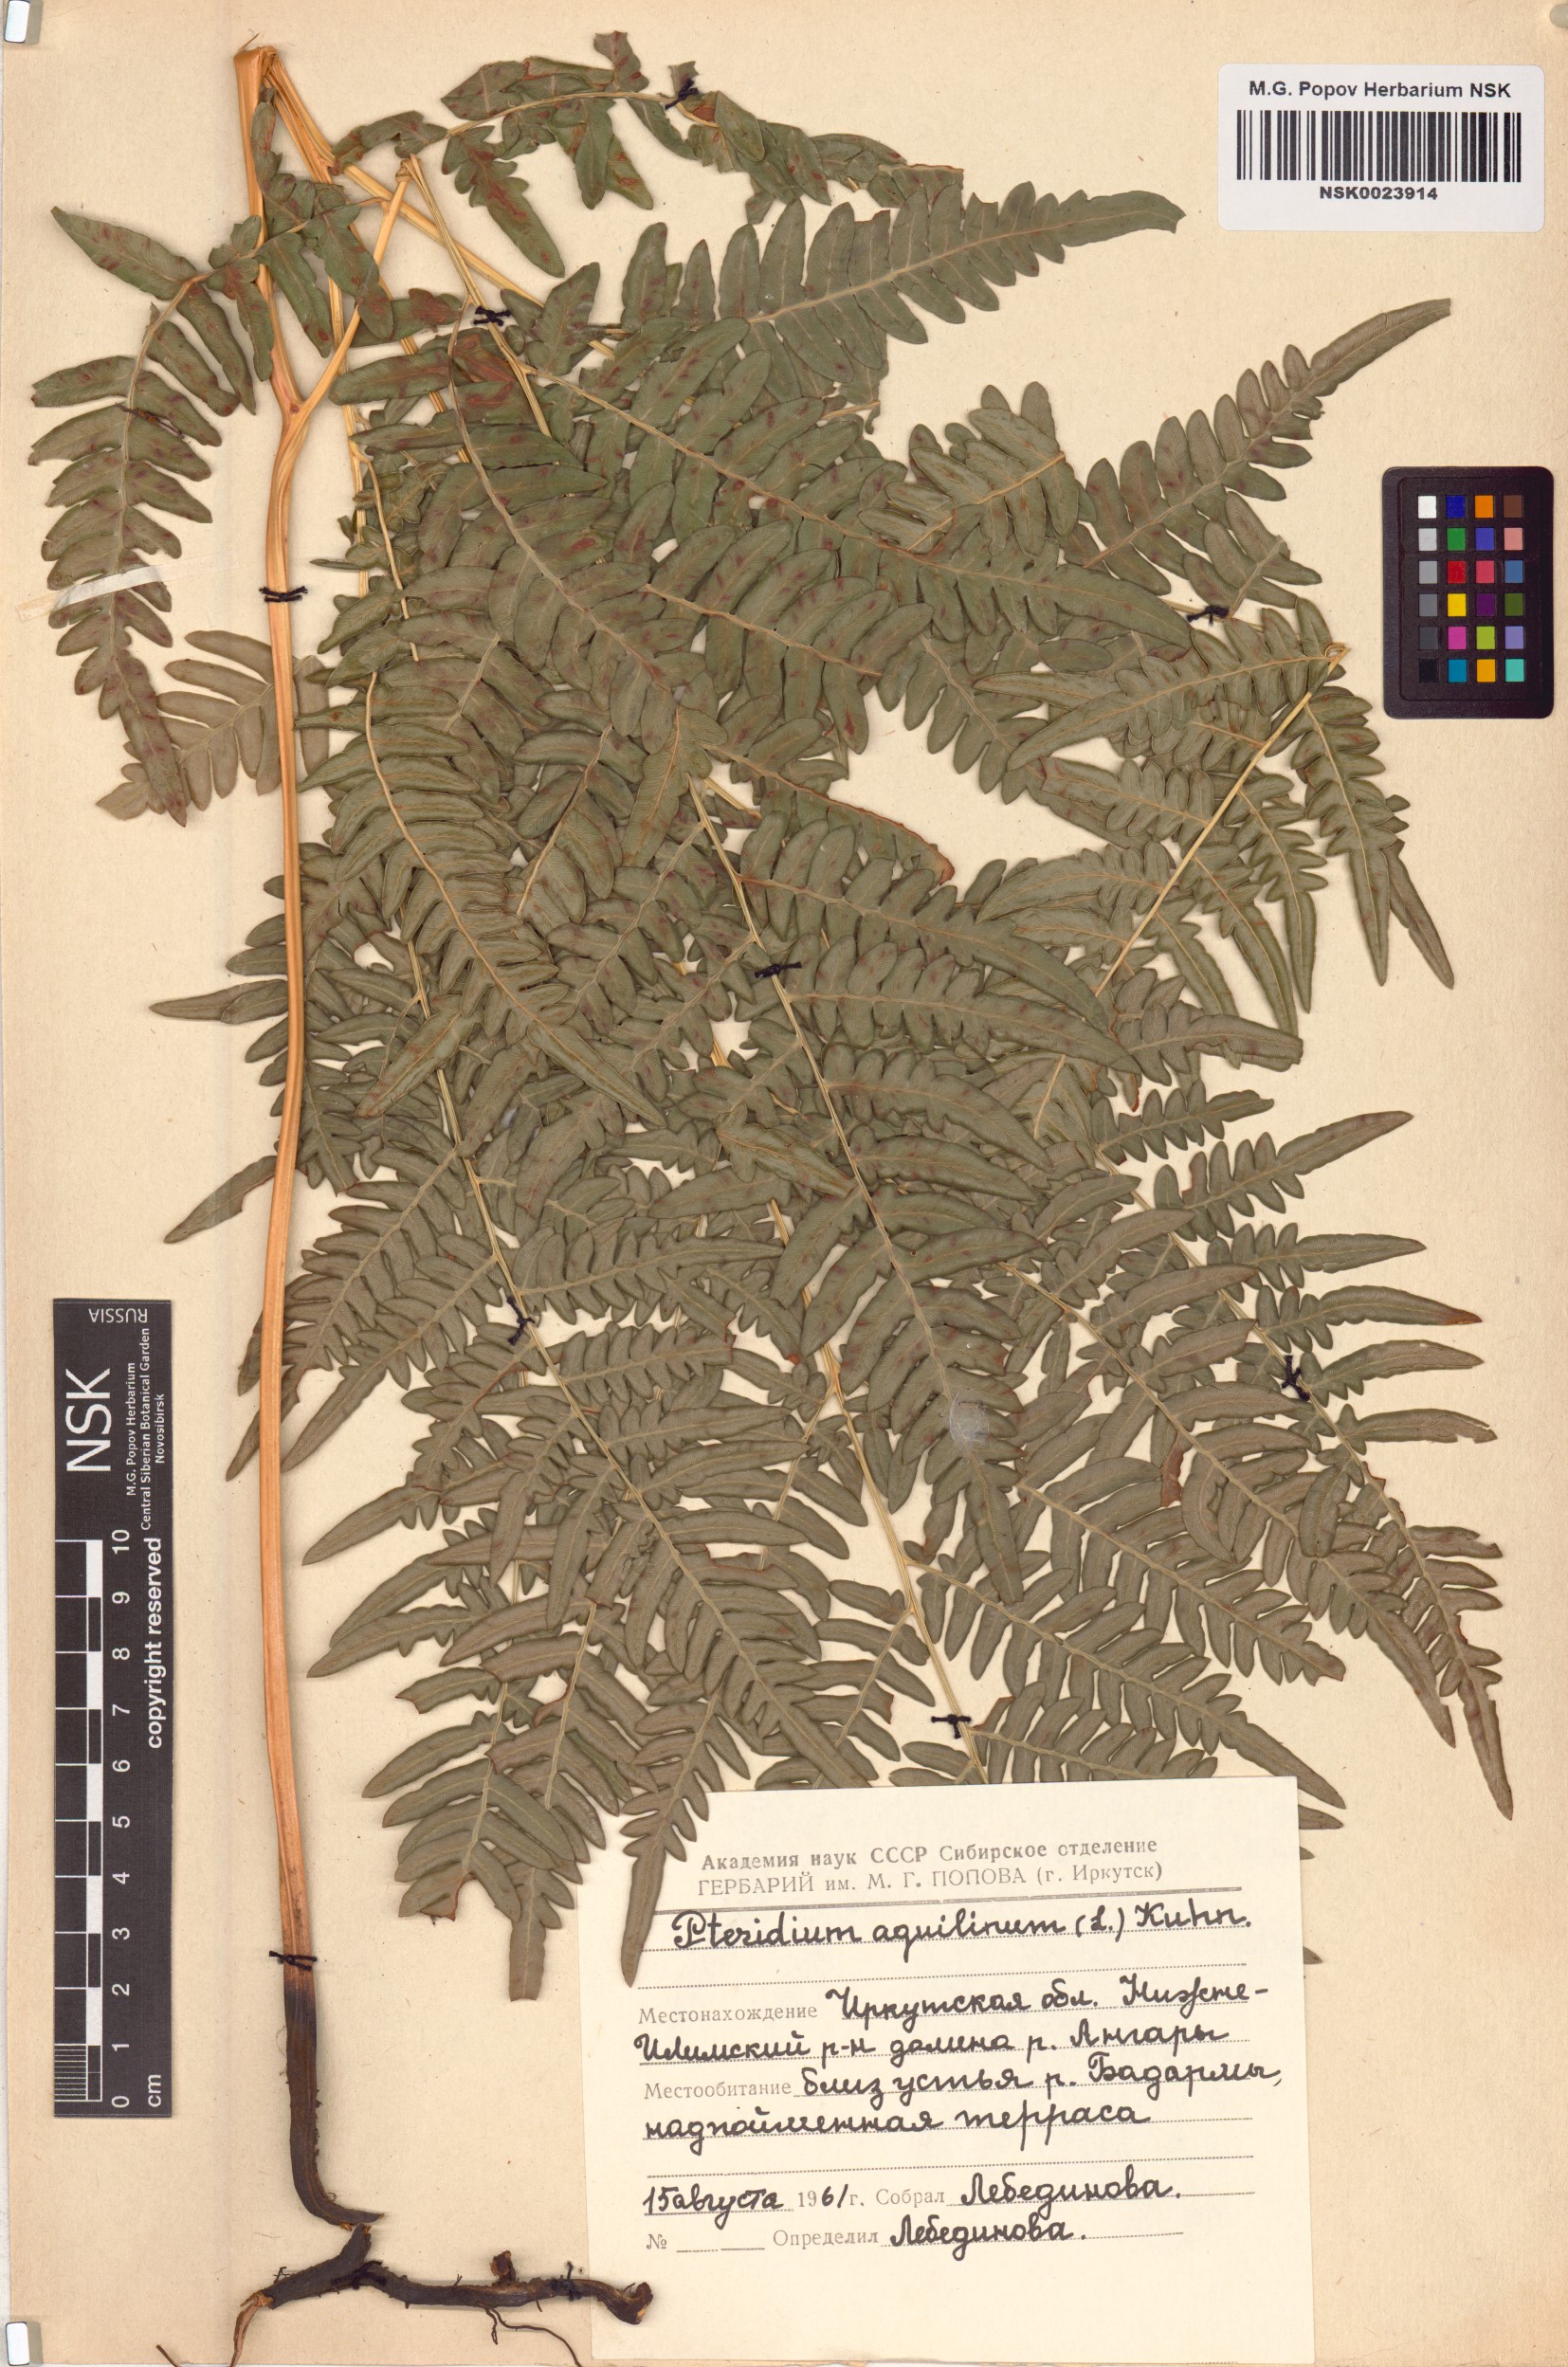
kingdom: Plantae
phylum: Tracheophyta
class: Polypodiopsida
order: Polypodiales
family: Dennstaedtiaceae
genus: Pteridium
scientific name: Pteridium aquilinum
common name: Bracken
